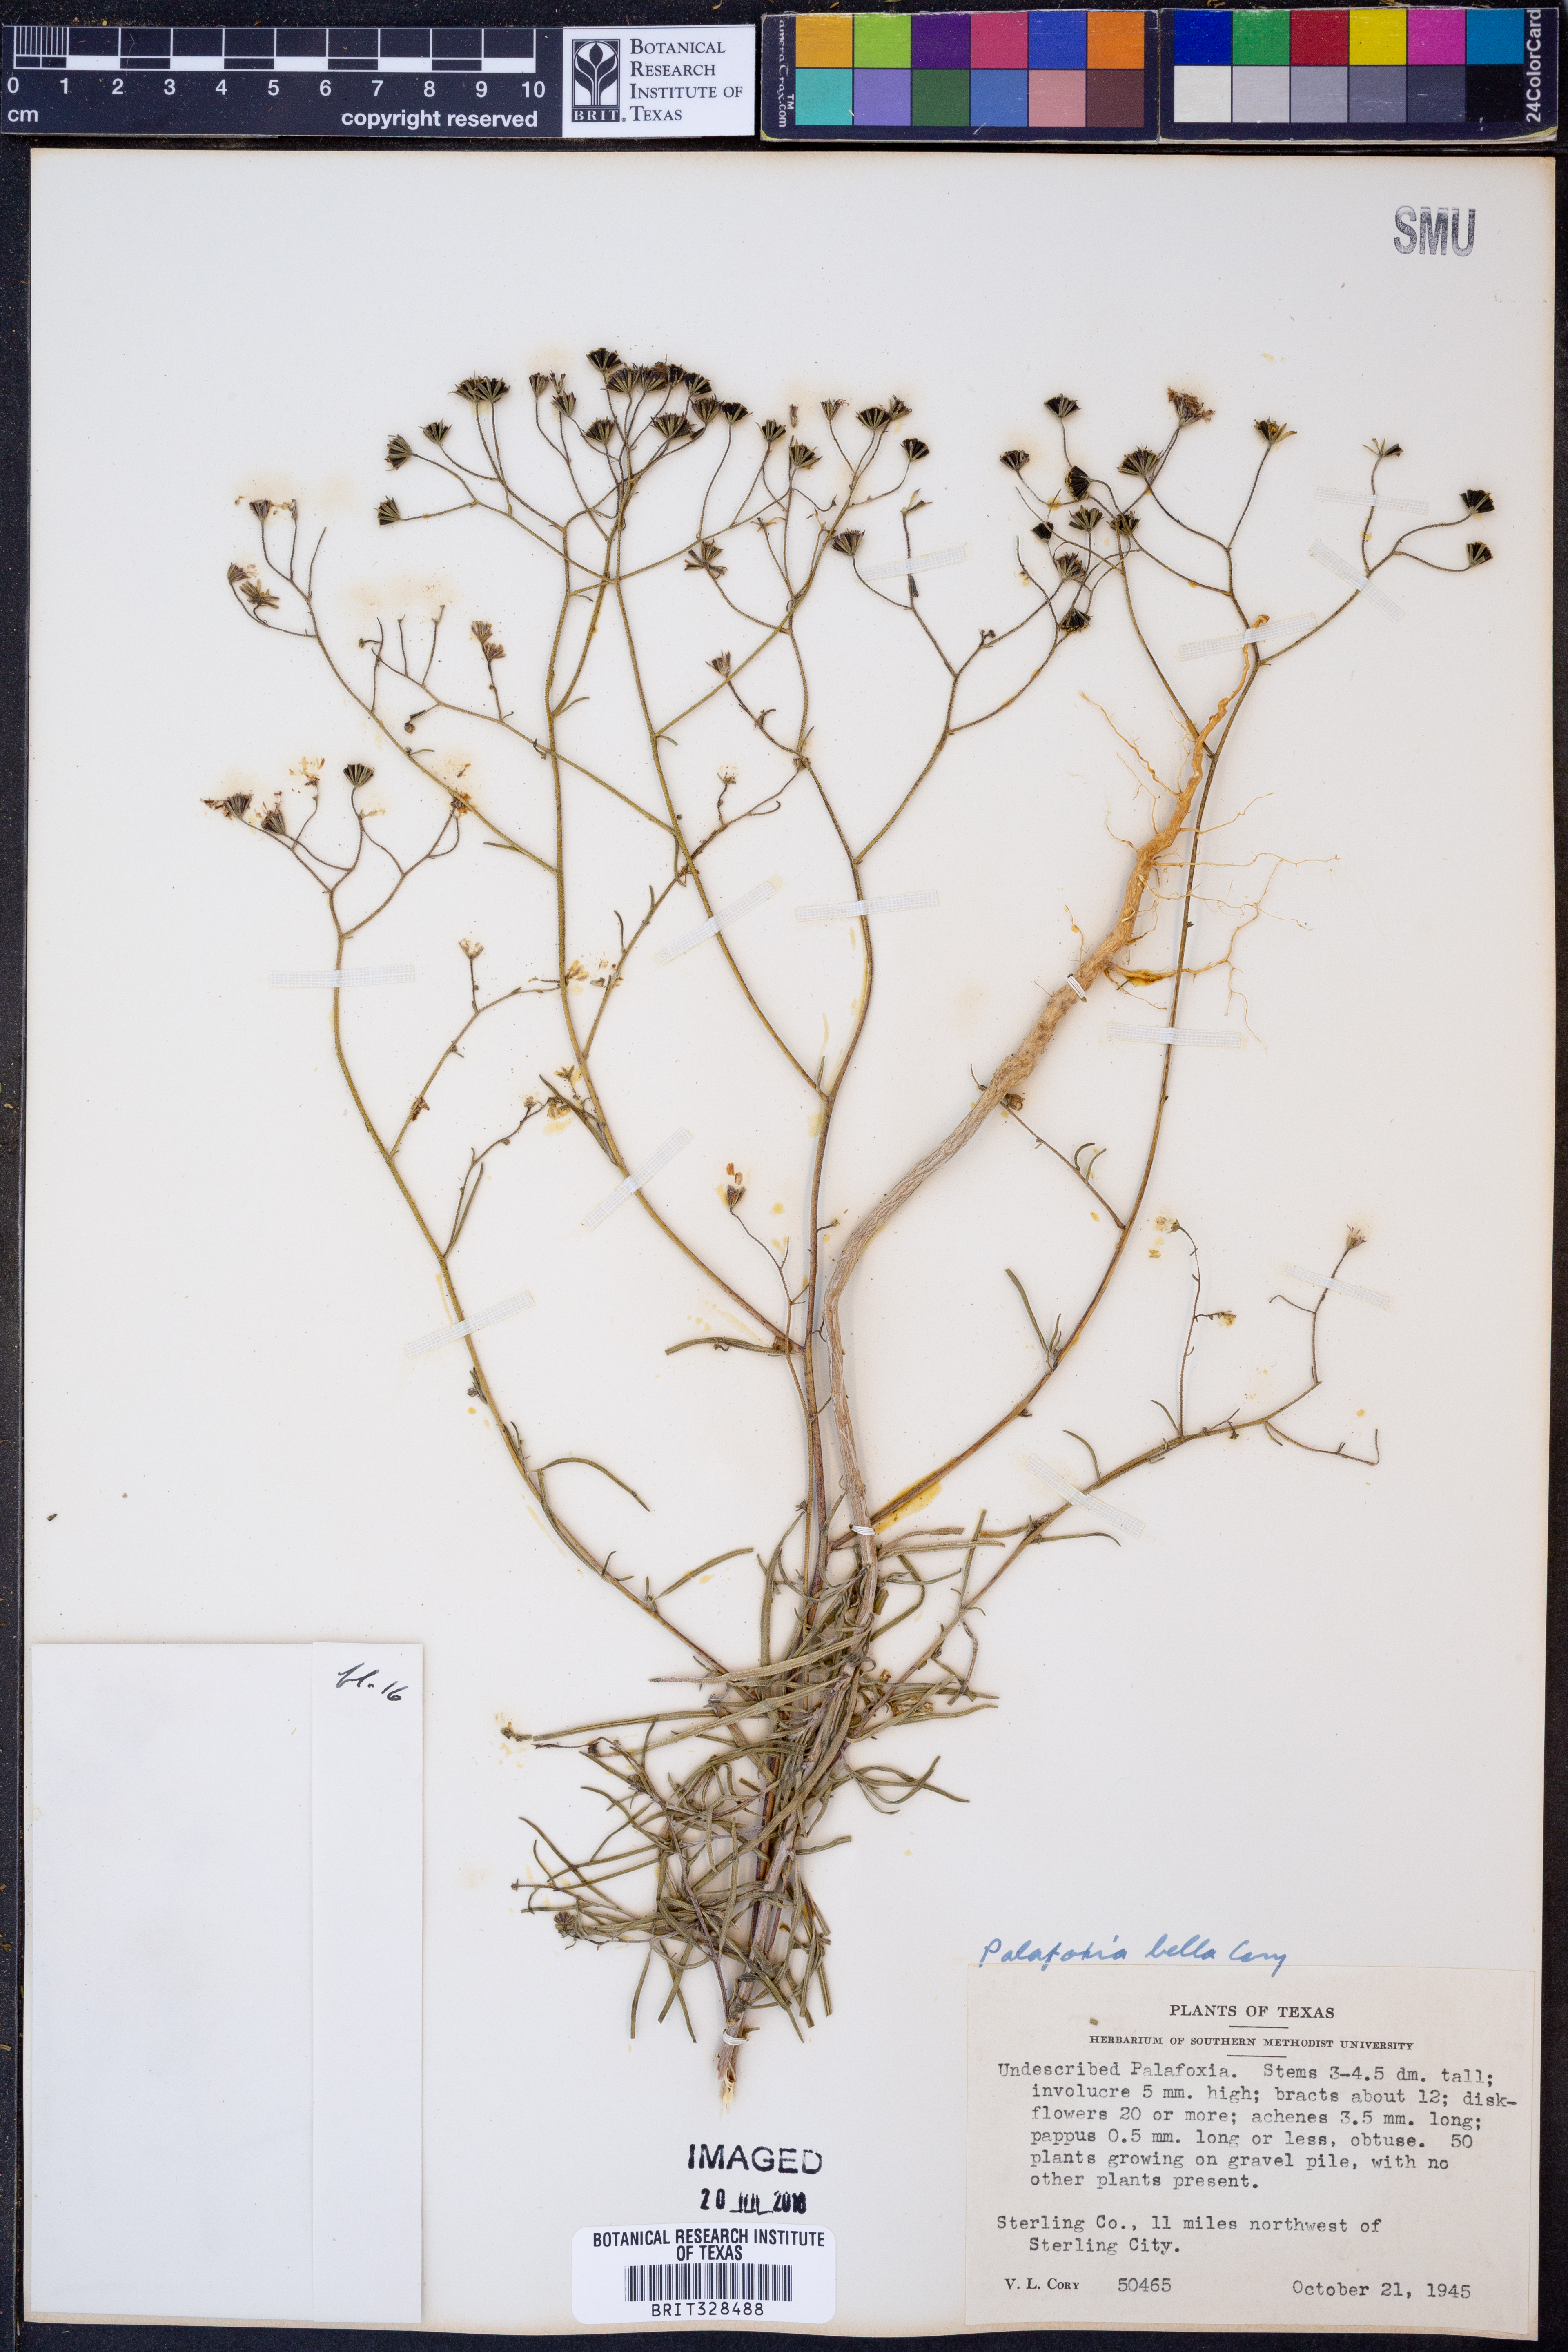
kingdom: Plantae
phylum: Tracheophyta
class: Magnoliopsida
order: Asterales
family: Asteraceae
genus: Palafoxia
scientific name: Palafoxia callosa
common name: Small palafox
